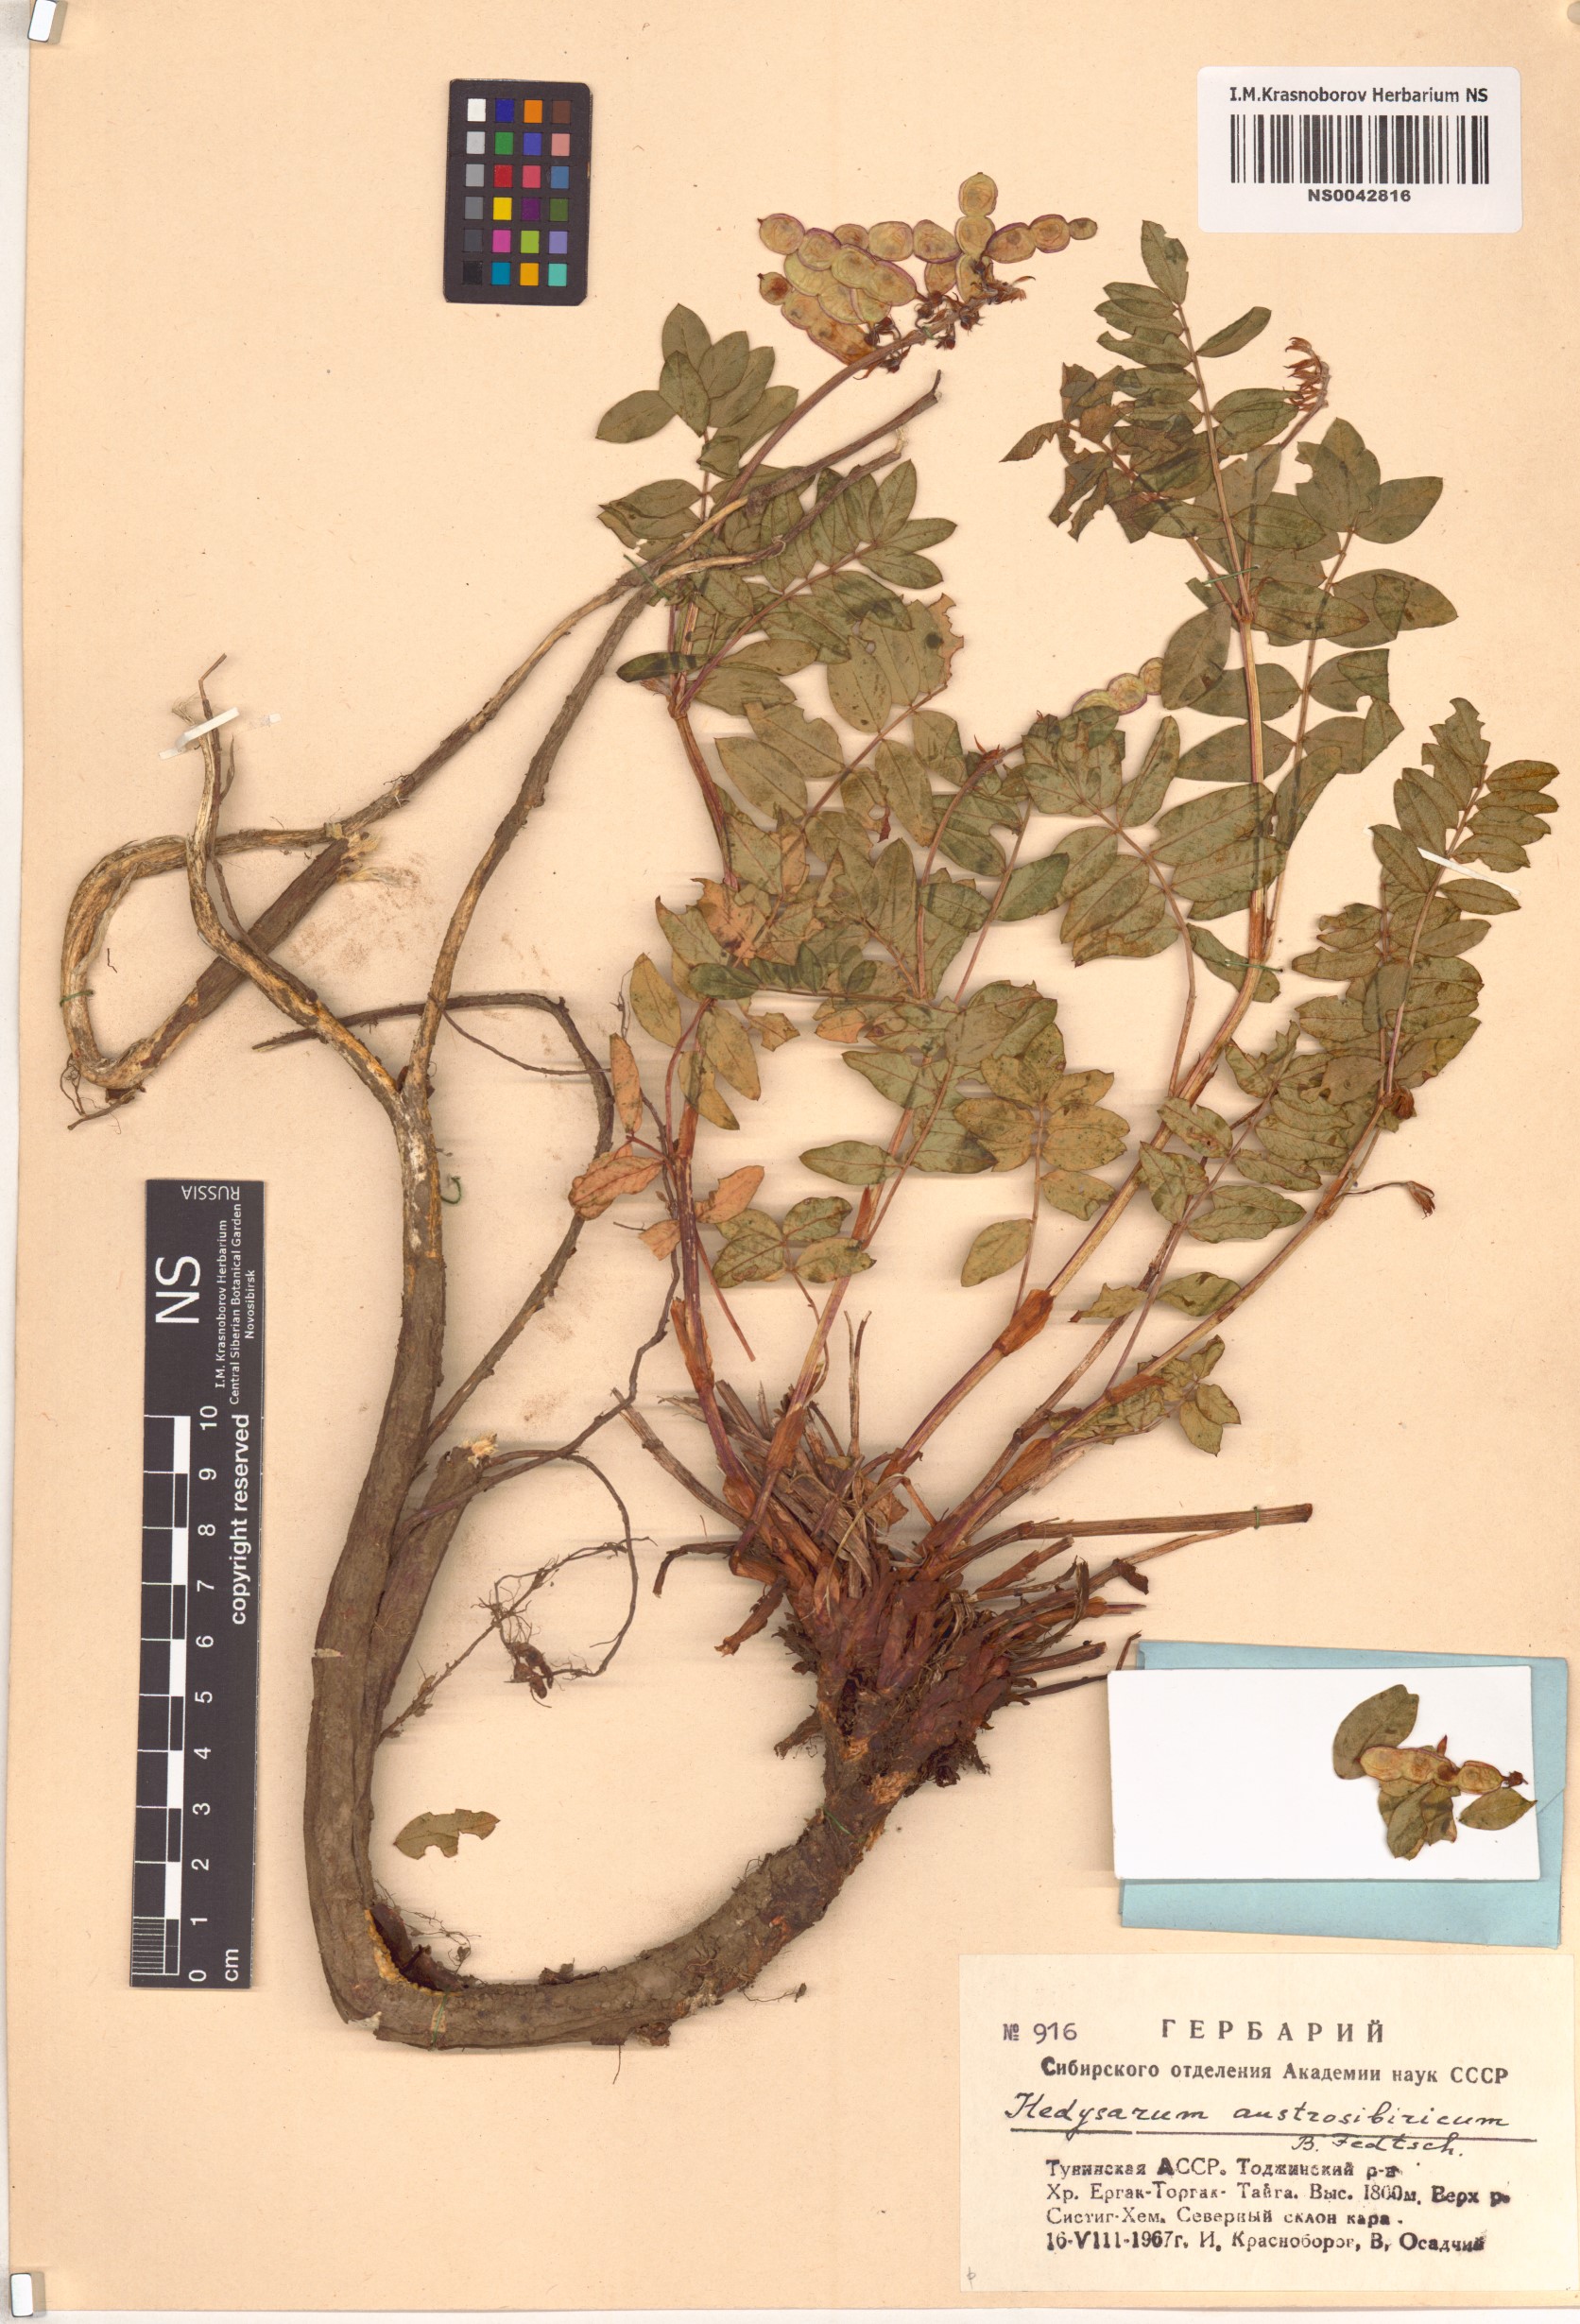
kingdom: Plantae
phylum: Tracheophyta
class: Magnoliopsida
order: Fabales
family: Fabaceae
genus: Hedysarum
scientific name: Hedysarum neglectum
